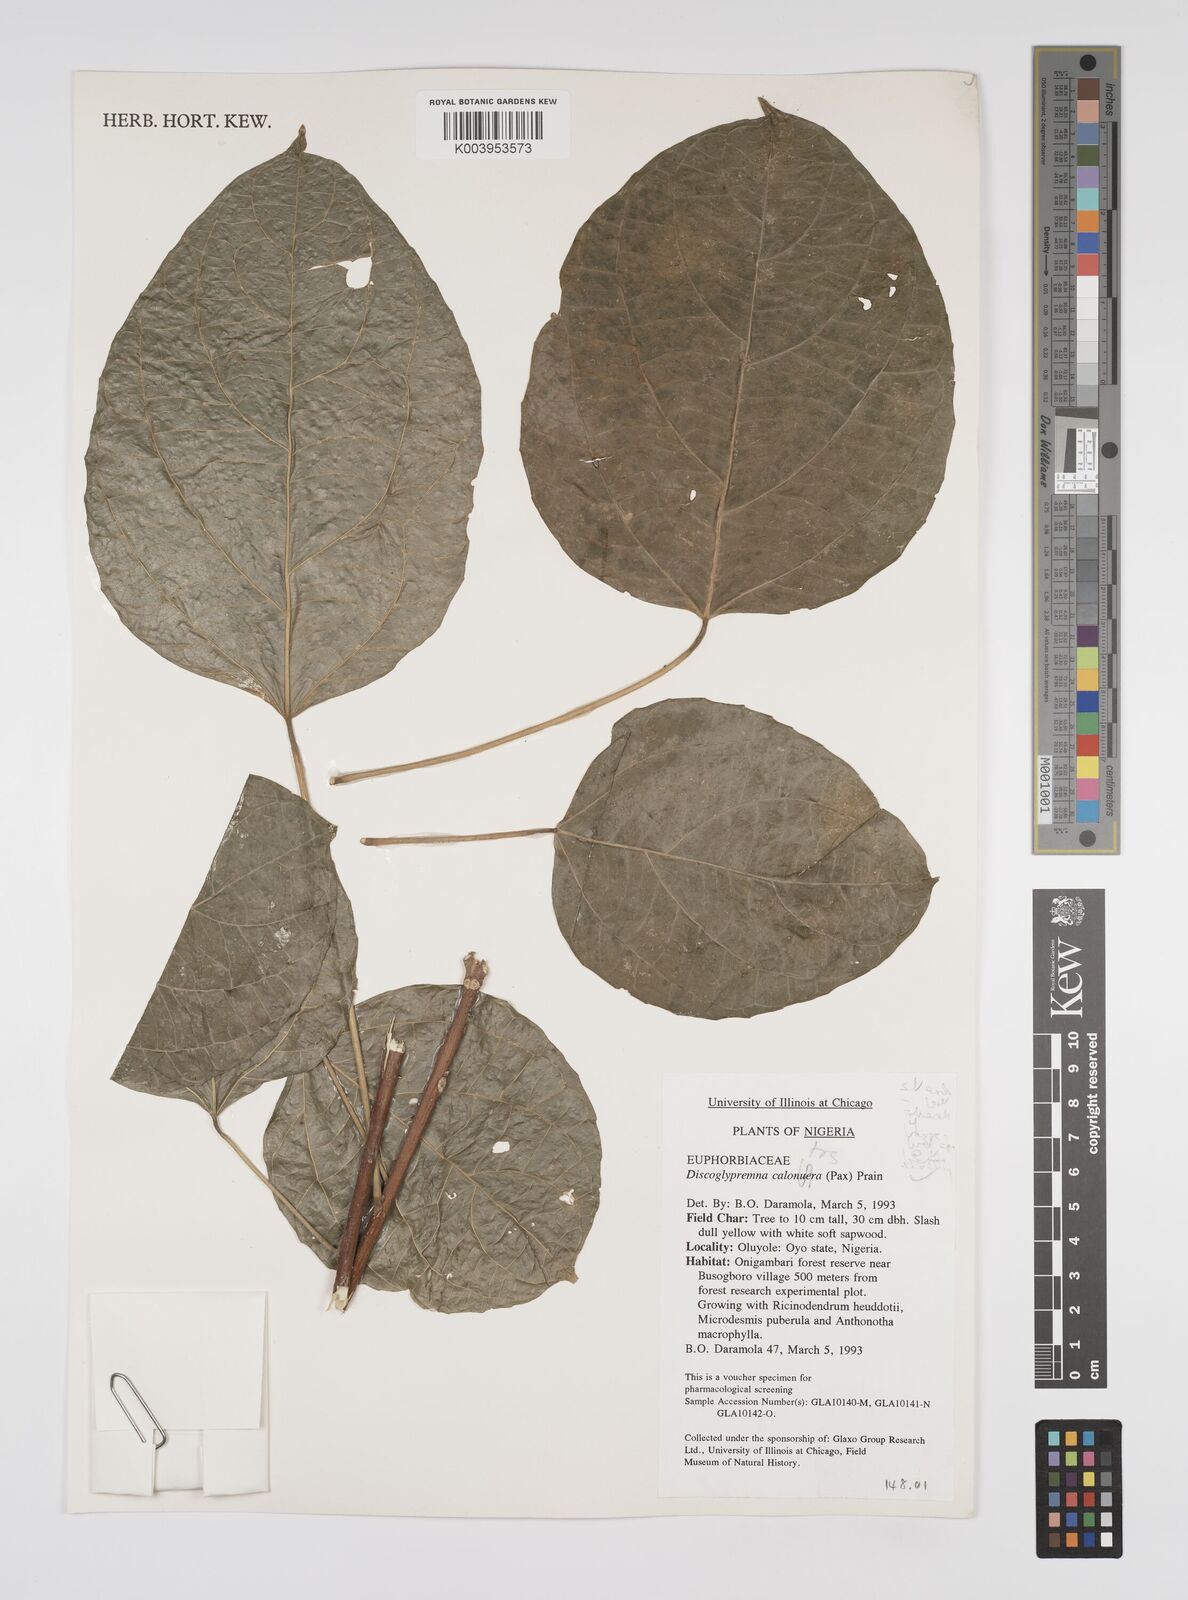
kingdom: Plantae
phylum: Tracheophyta
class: Magnoliopsida
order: Malpighiales
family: Euphorbiaceae
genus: Discoglypremna
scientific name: Discoglypremna caloneura
